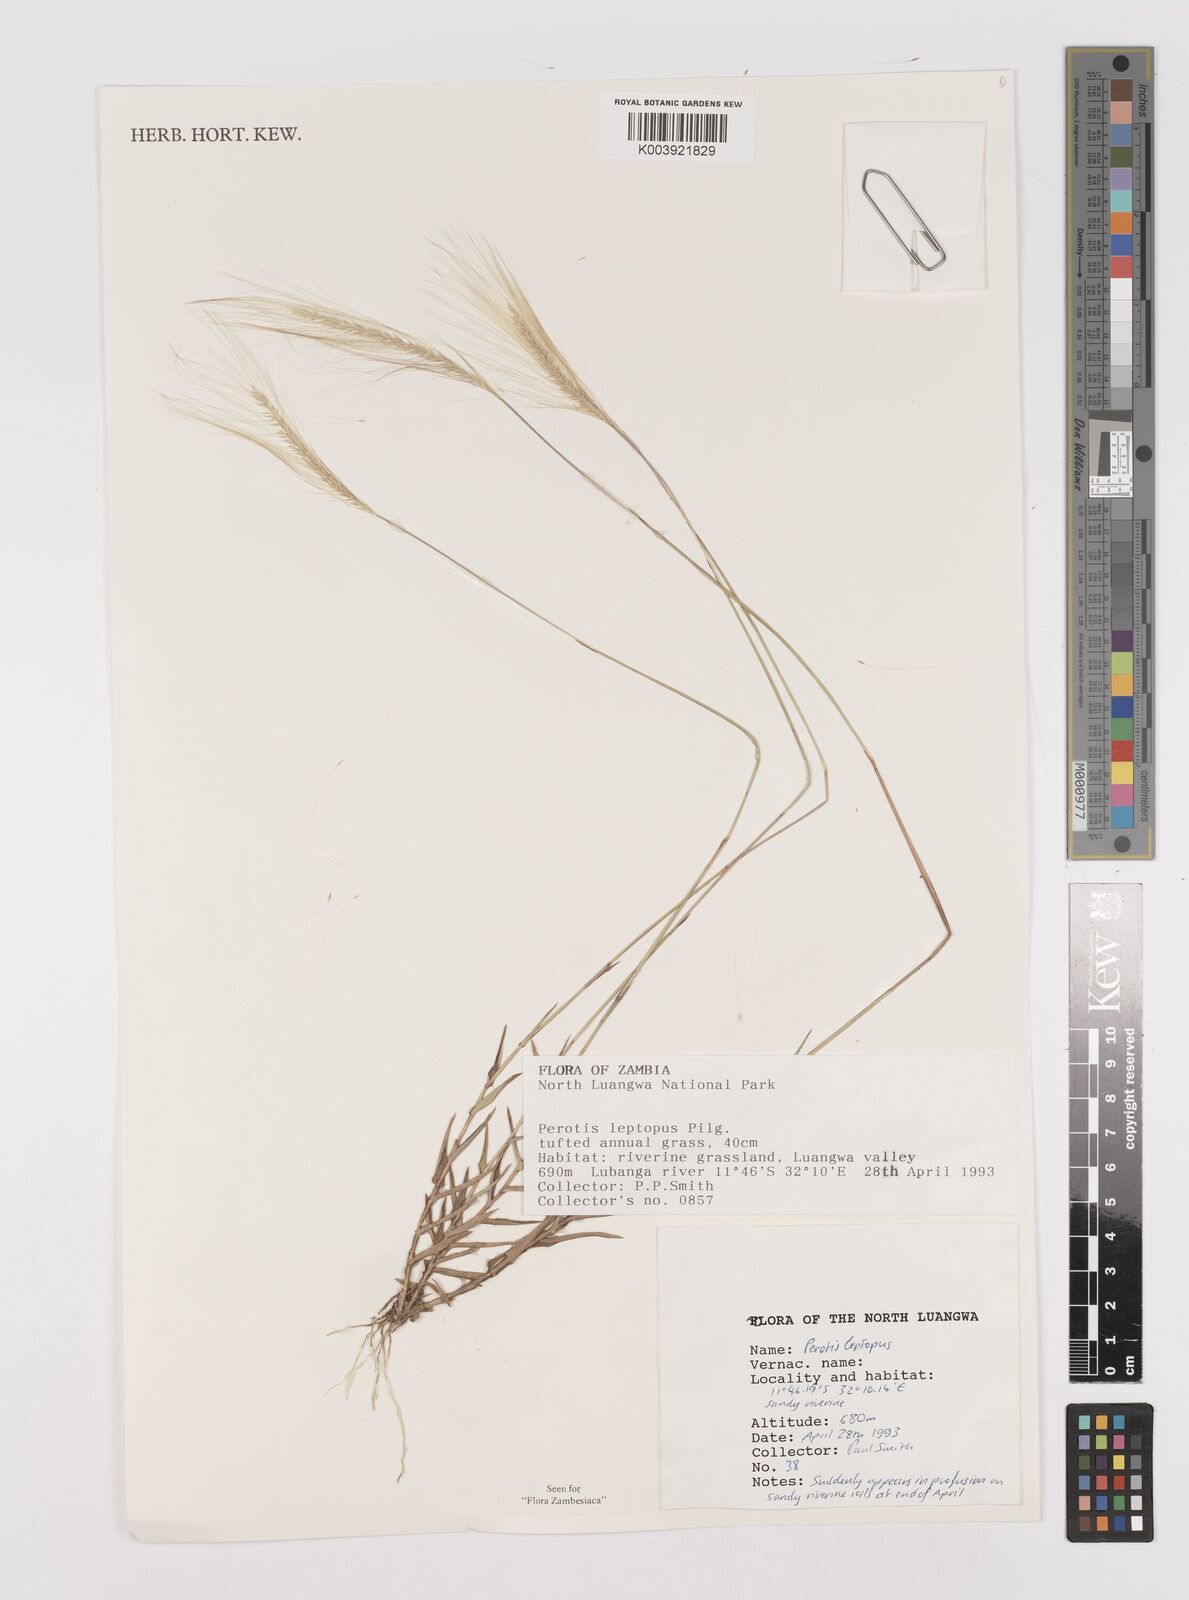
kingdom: Plantae
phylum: Tracheophyta
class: Liliopsida
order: Poales
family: Poaceae
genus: Perotis
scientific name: Perotis leptopus
